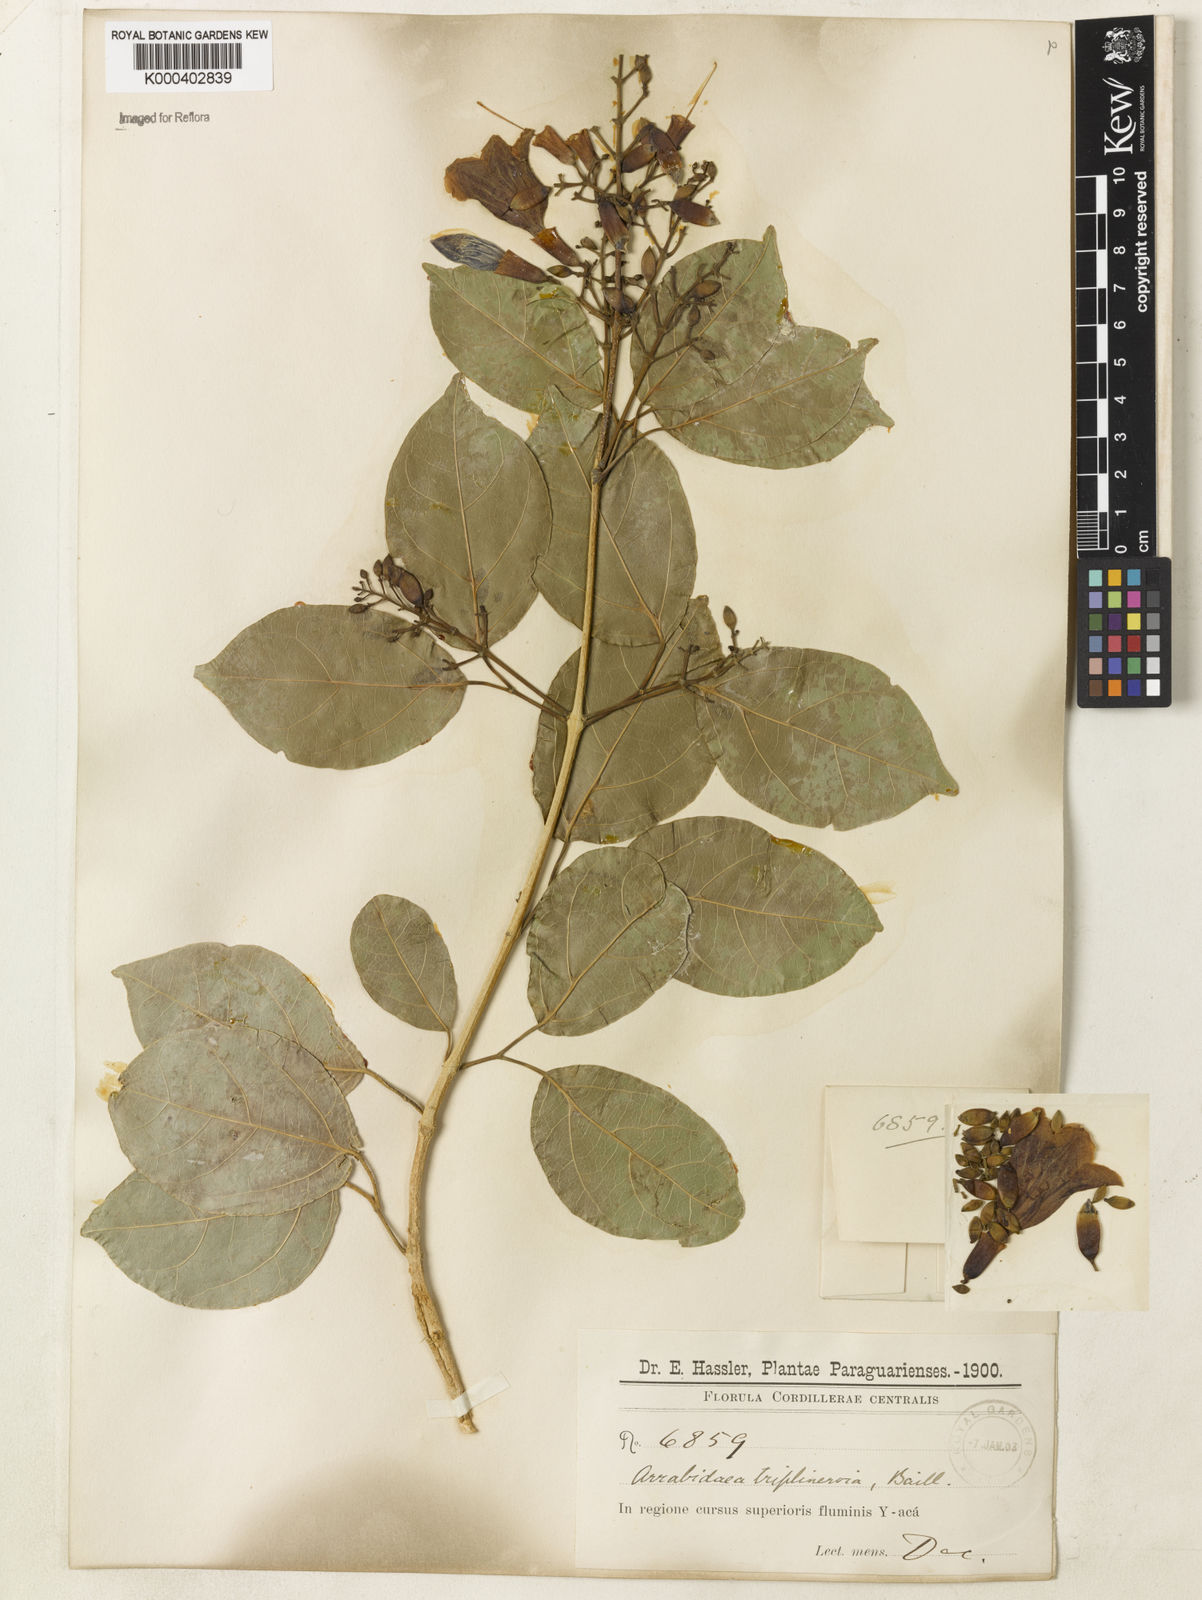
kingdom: Plantae
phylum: Tracheophyta
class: Magnoliopsida
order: Lamiales
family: Bignoniaceae
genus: Fridericia
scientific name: Fridericia triplinervia
